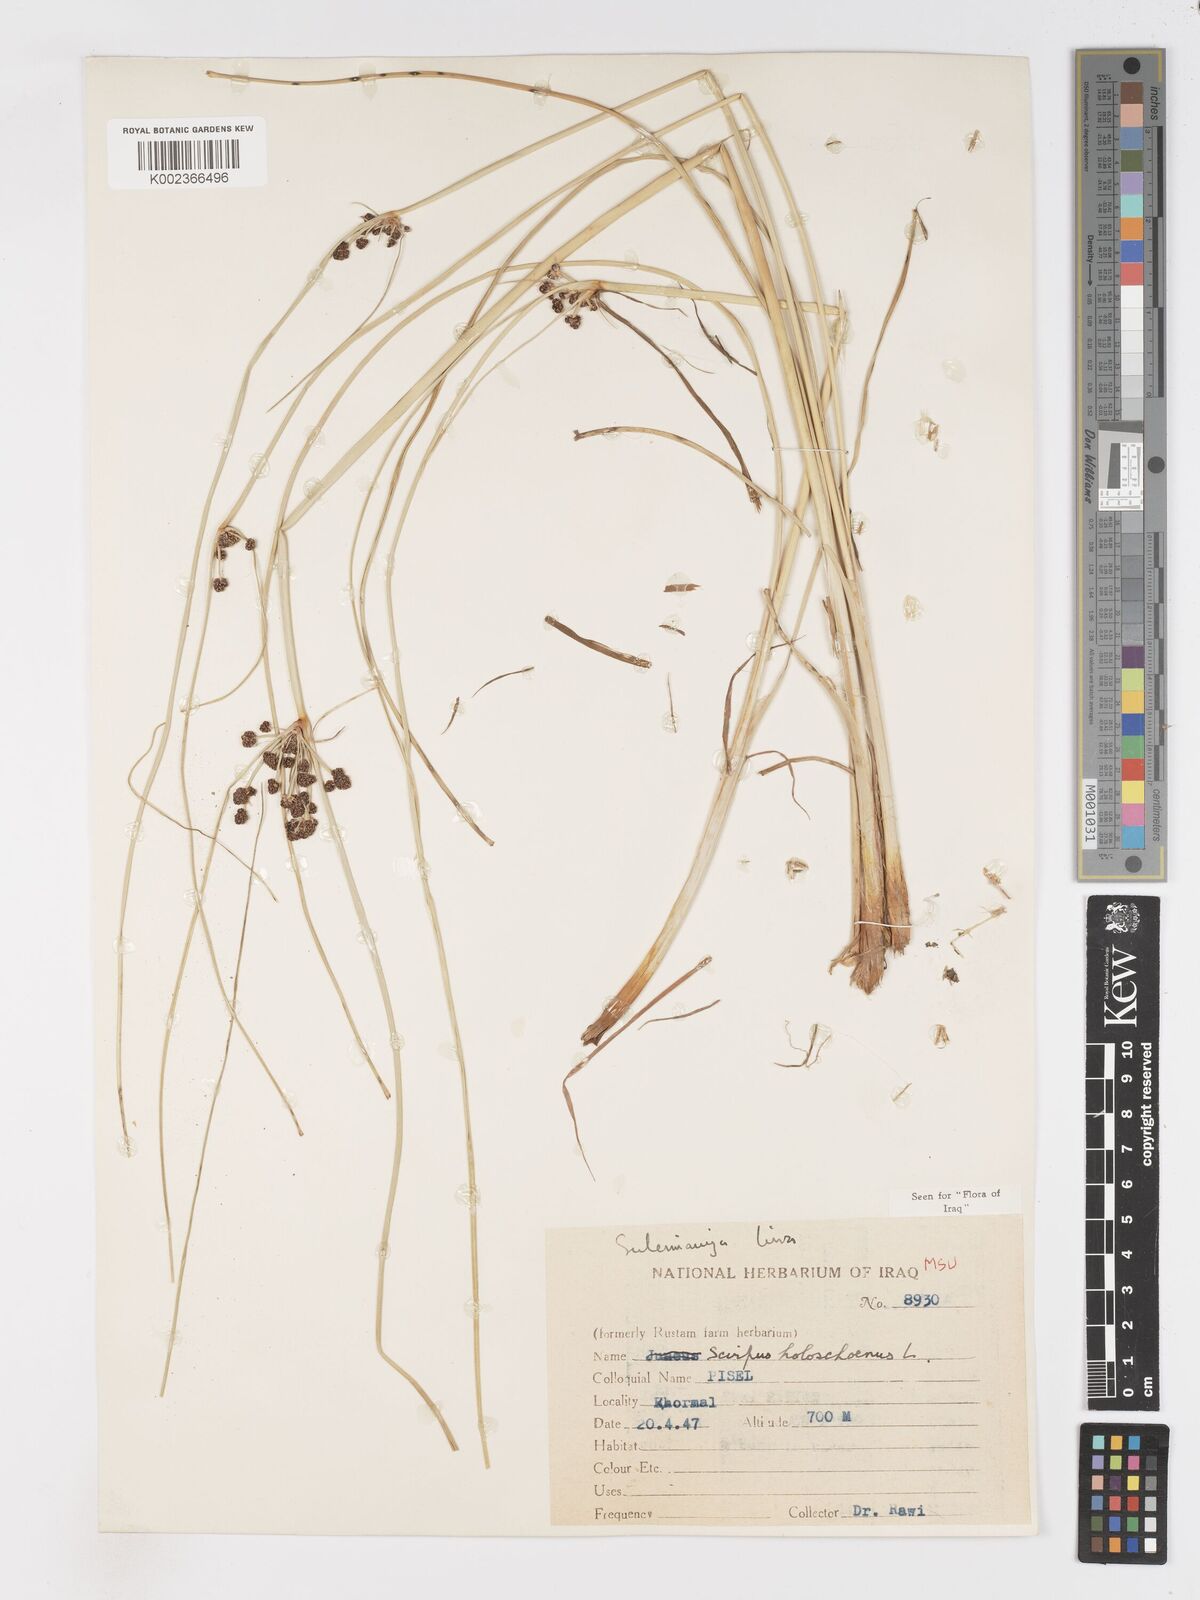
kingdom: Plantae
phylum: Tracheophyta
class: Liliopsida
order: Poales
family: Cyperaceae
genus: Scirpoides
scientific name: Scirpoides holoschoenus
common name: Round-headed club-rush
